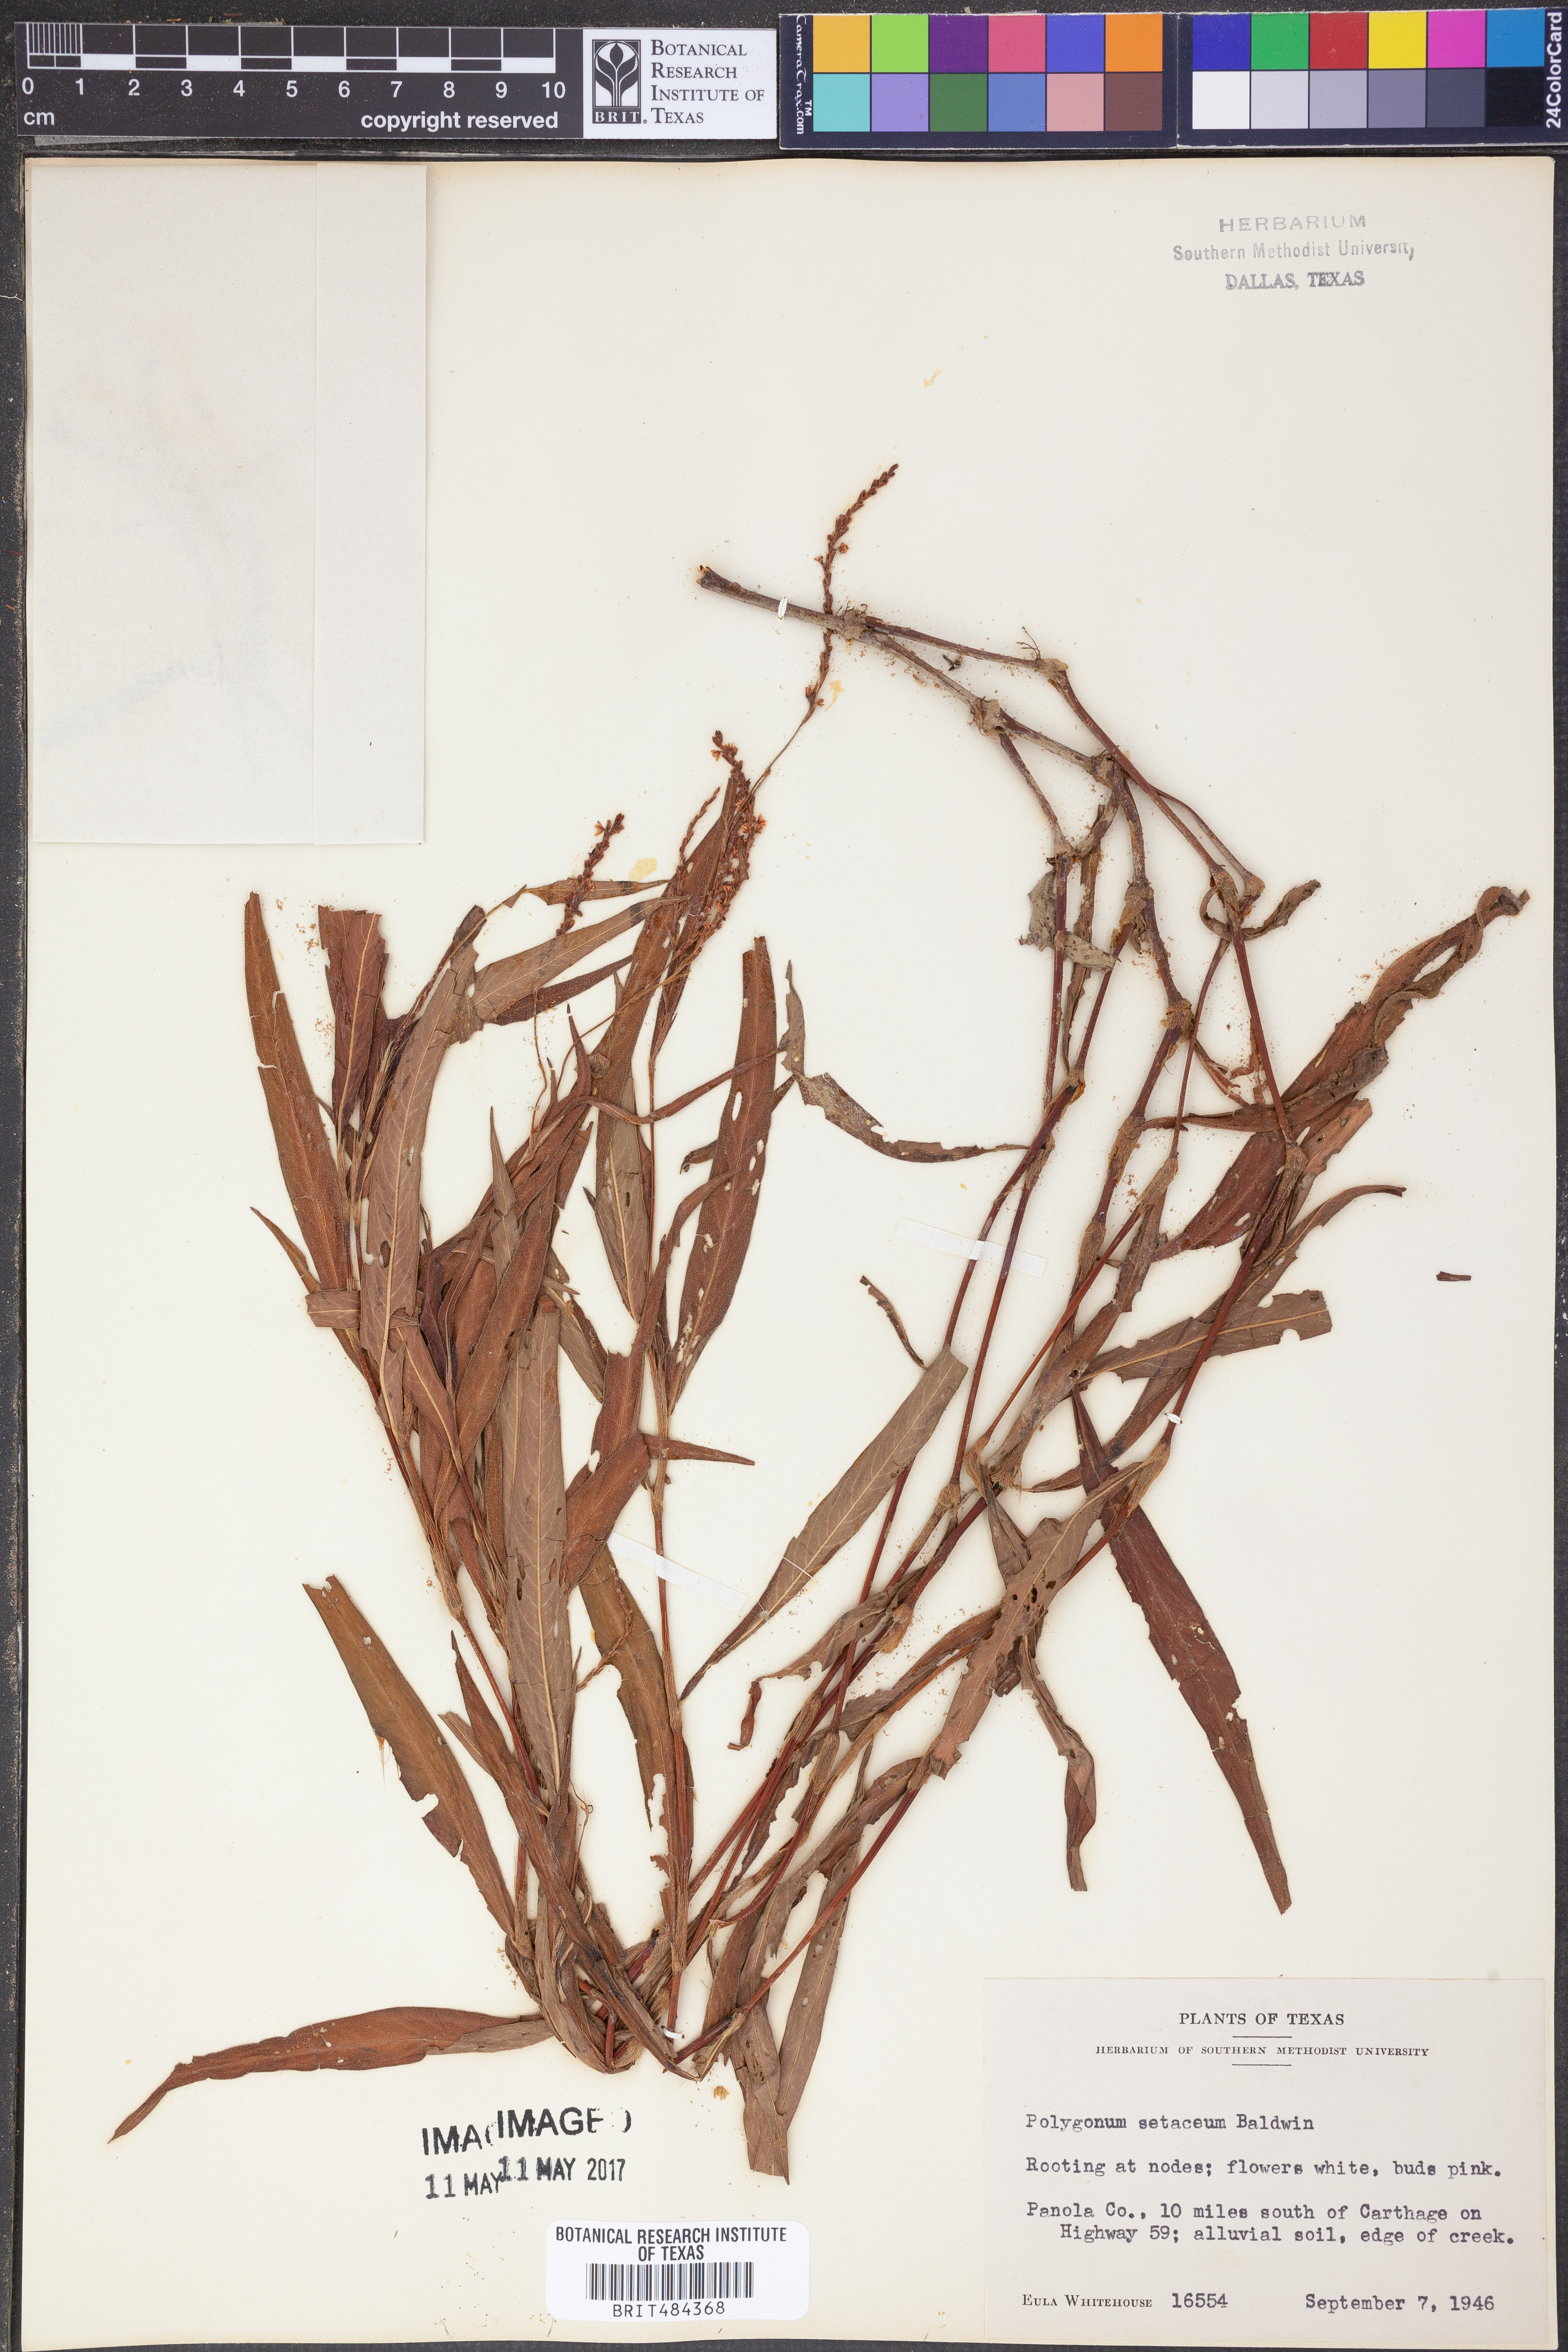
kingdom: Plantae
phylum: Tracheophyta
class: Magnoliopsida
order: Caryophyllales
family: Polygonaceae
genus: Persicaria
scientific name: Persicaria setacea
